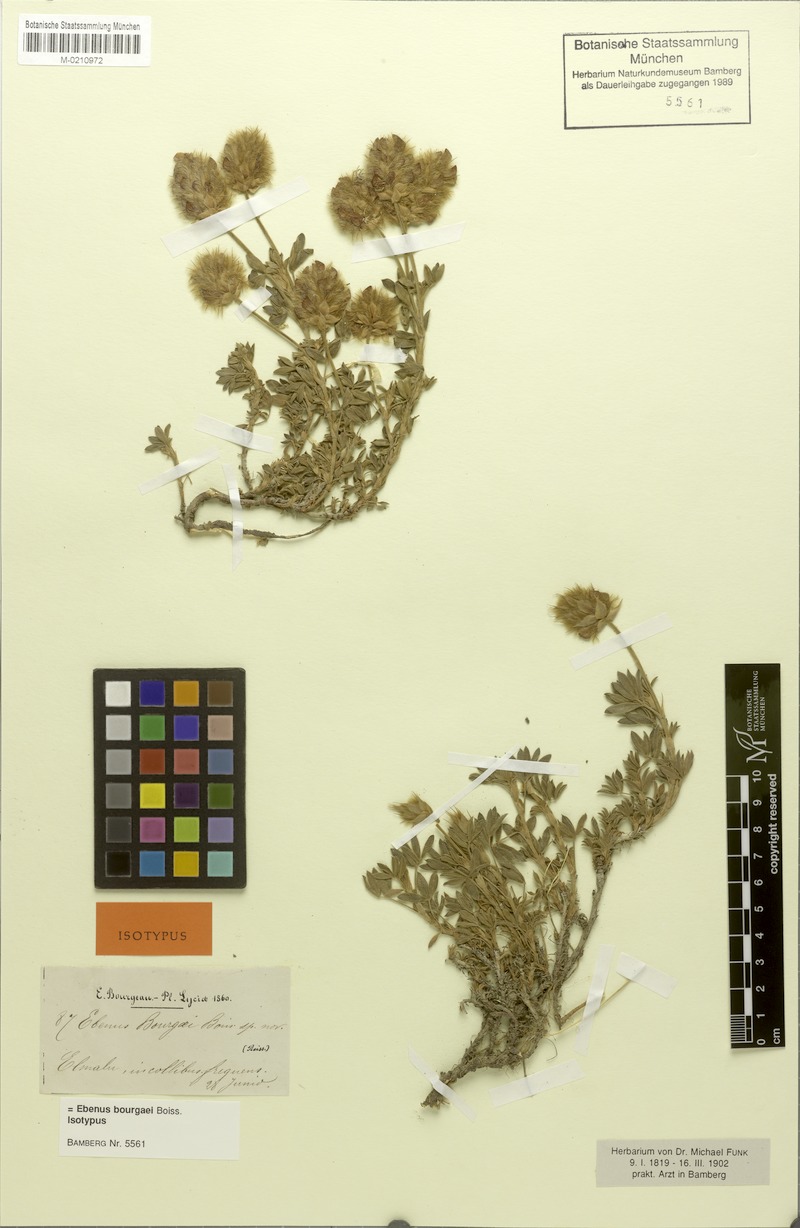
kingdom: Plantae
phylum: Tracheophyta
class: Magnoliopsida
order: Fabales
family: Fabaceae
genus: Ebenus
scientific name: Ebenus bourgaei
